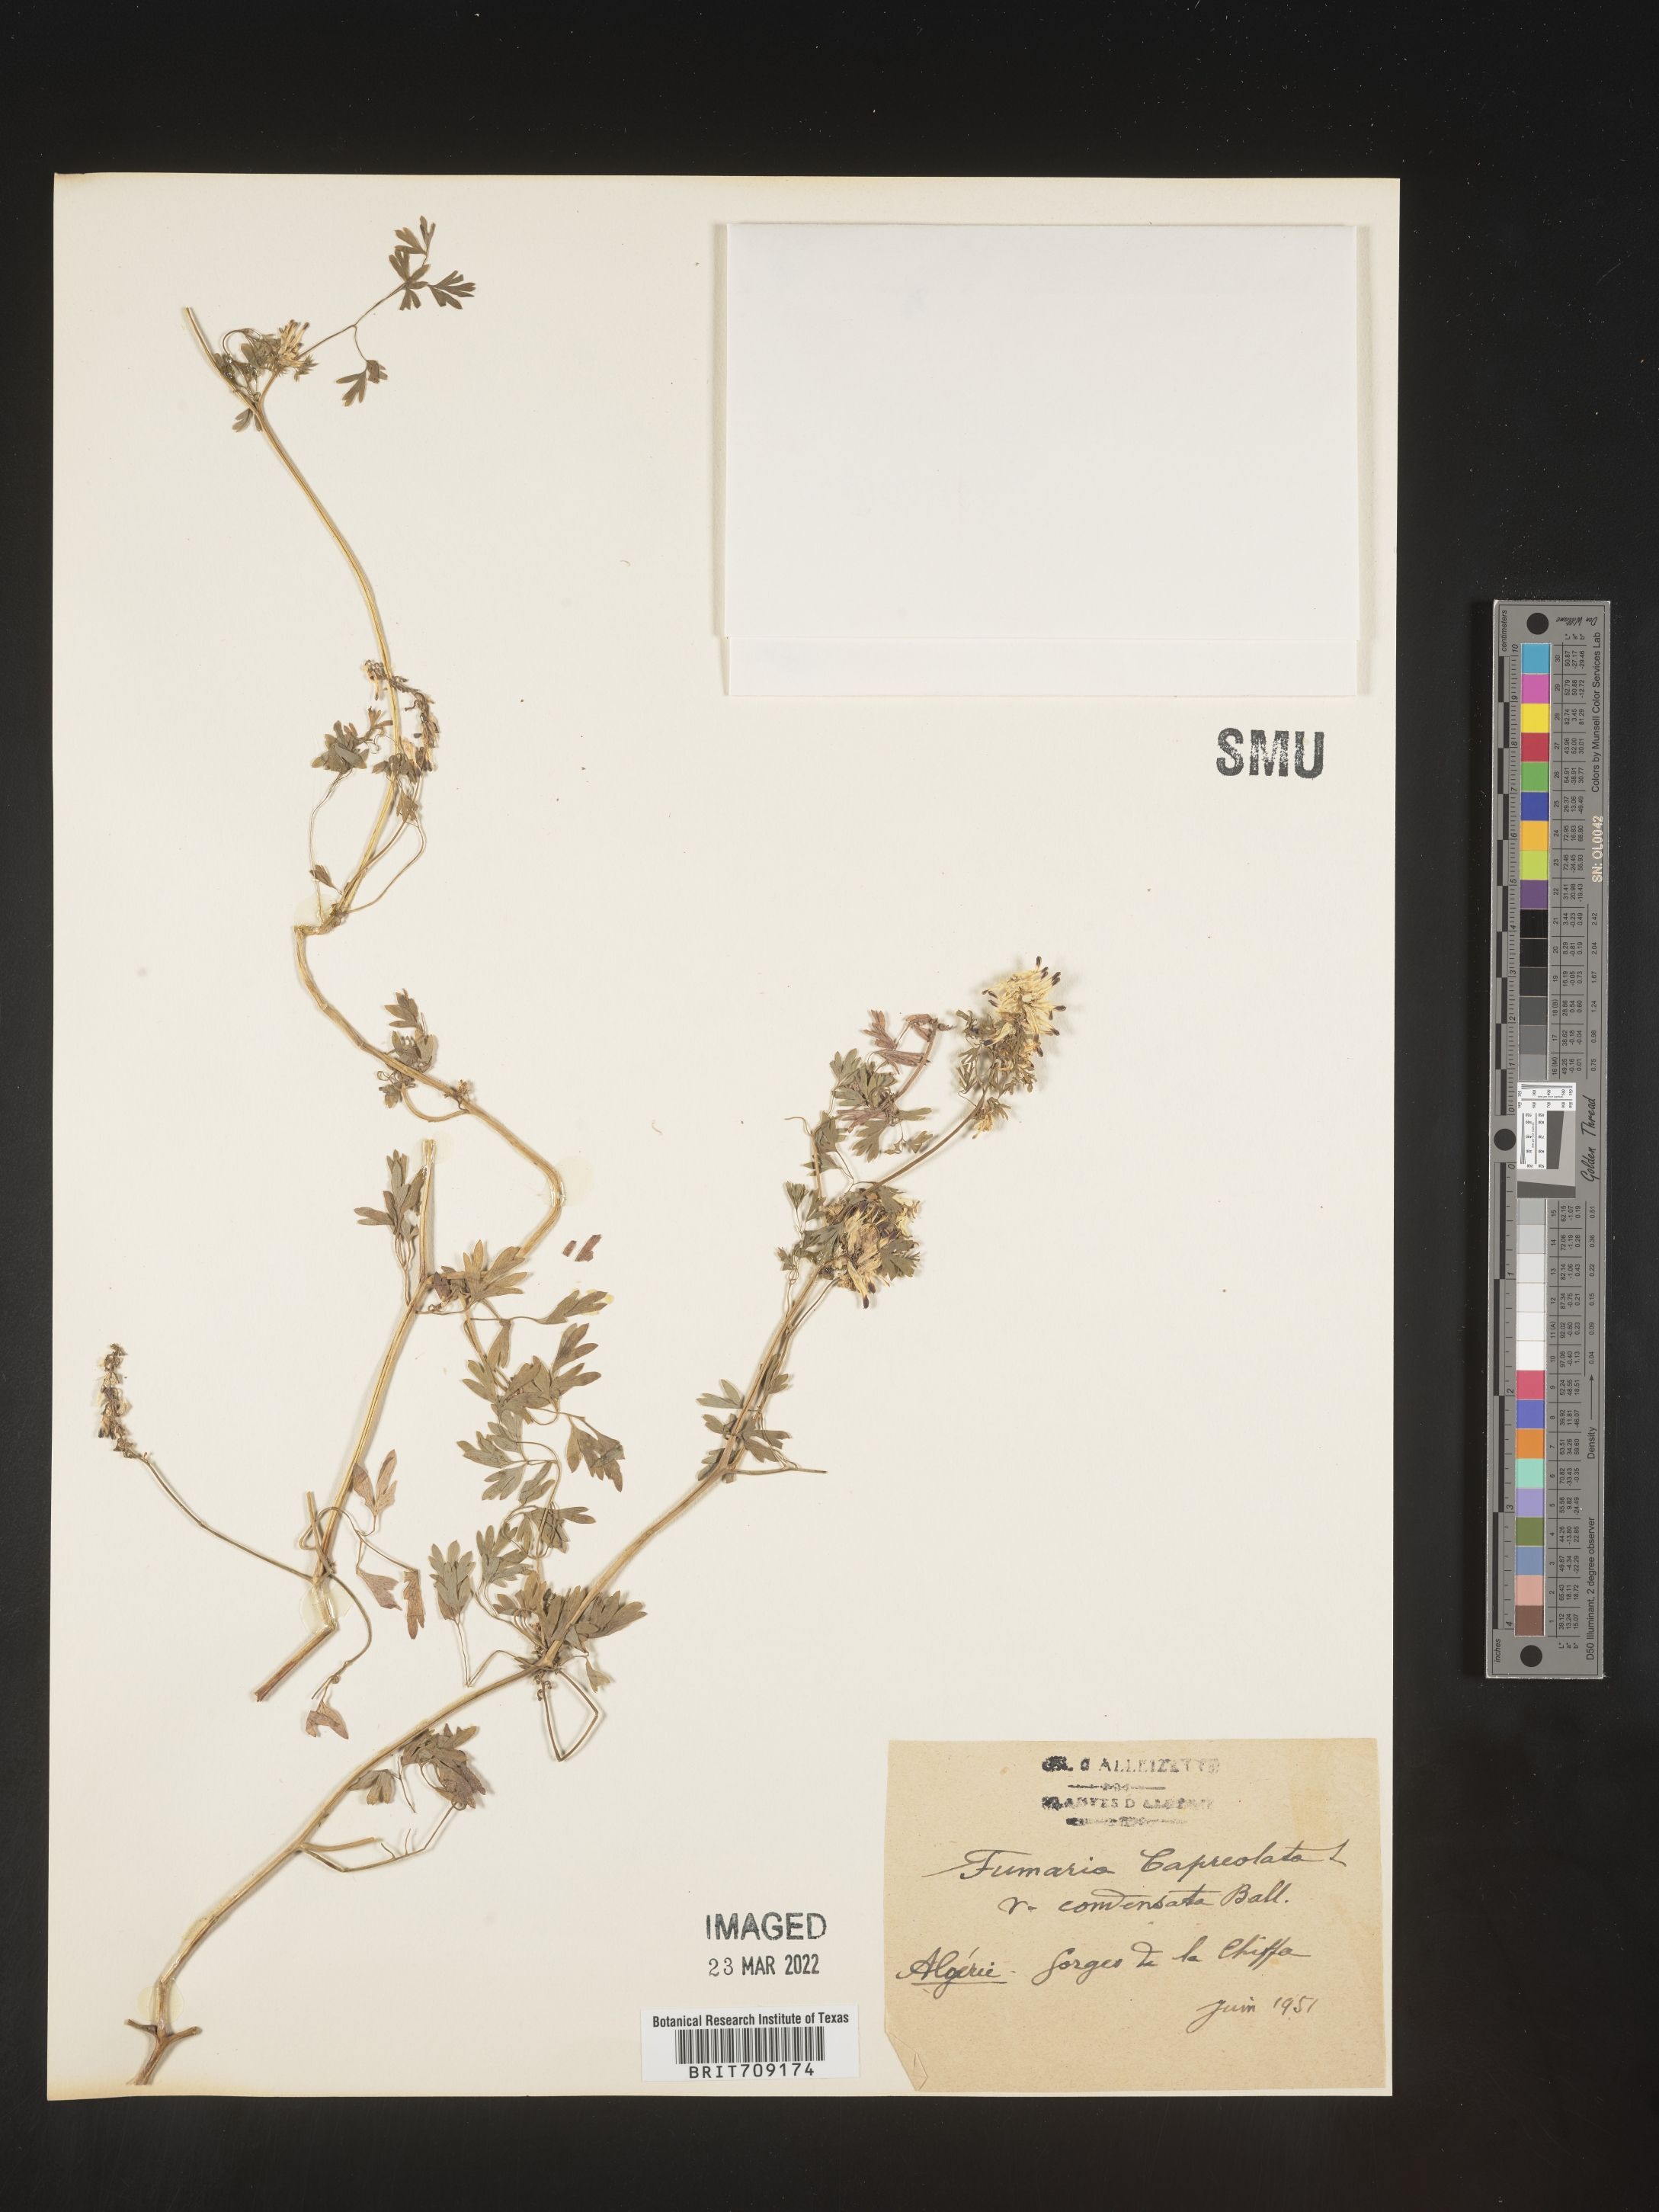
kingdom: Plantae
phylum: Tracheophyta
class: Magnoliopsida
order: Ranunculales
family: Papaveraceae
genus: Fumaria
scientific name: Fumaria
